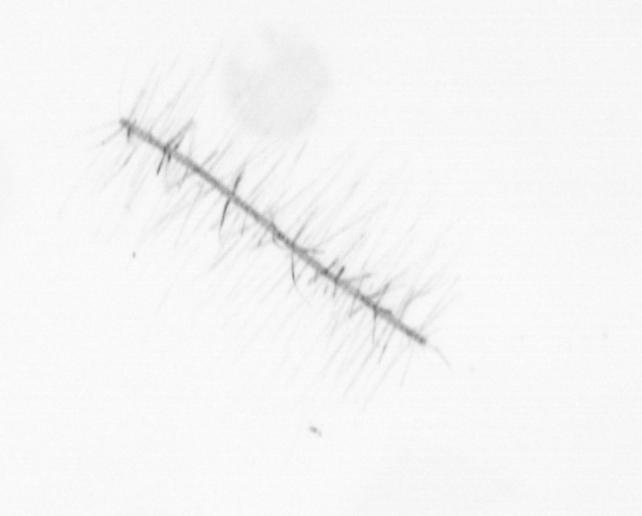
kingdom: Chromista
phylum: Ochrophyta
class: Bacillariophyceae
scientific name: Bacillariophyceae
